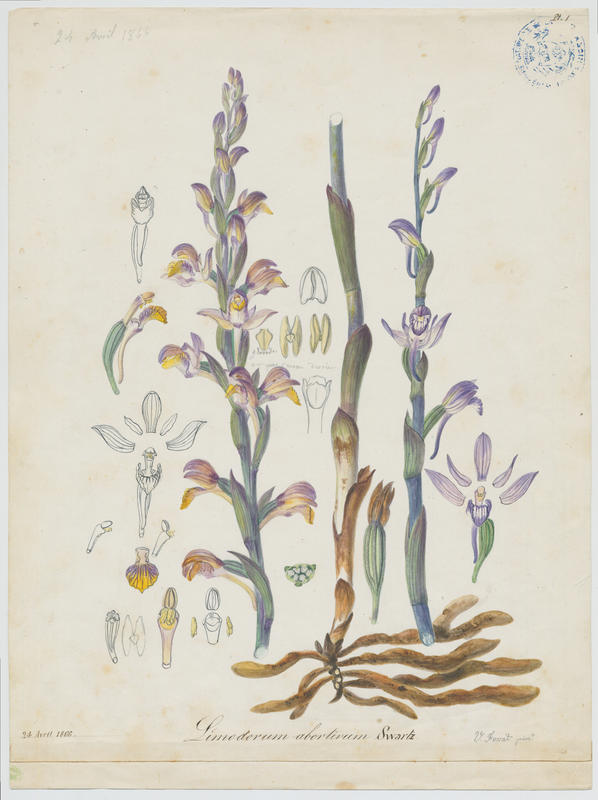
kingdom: Plantae
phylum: Tracheophyta
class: Liliopsida
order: Asparagales
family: Orchidaceae
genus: Limodorum
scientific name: Limodorum abortivum
